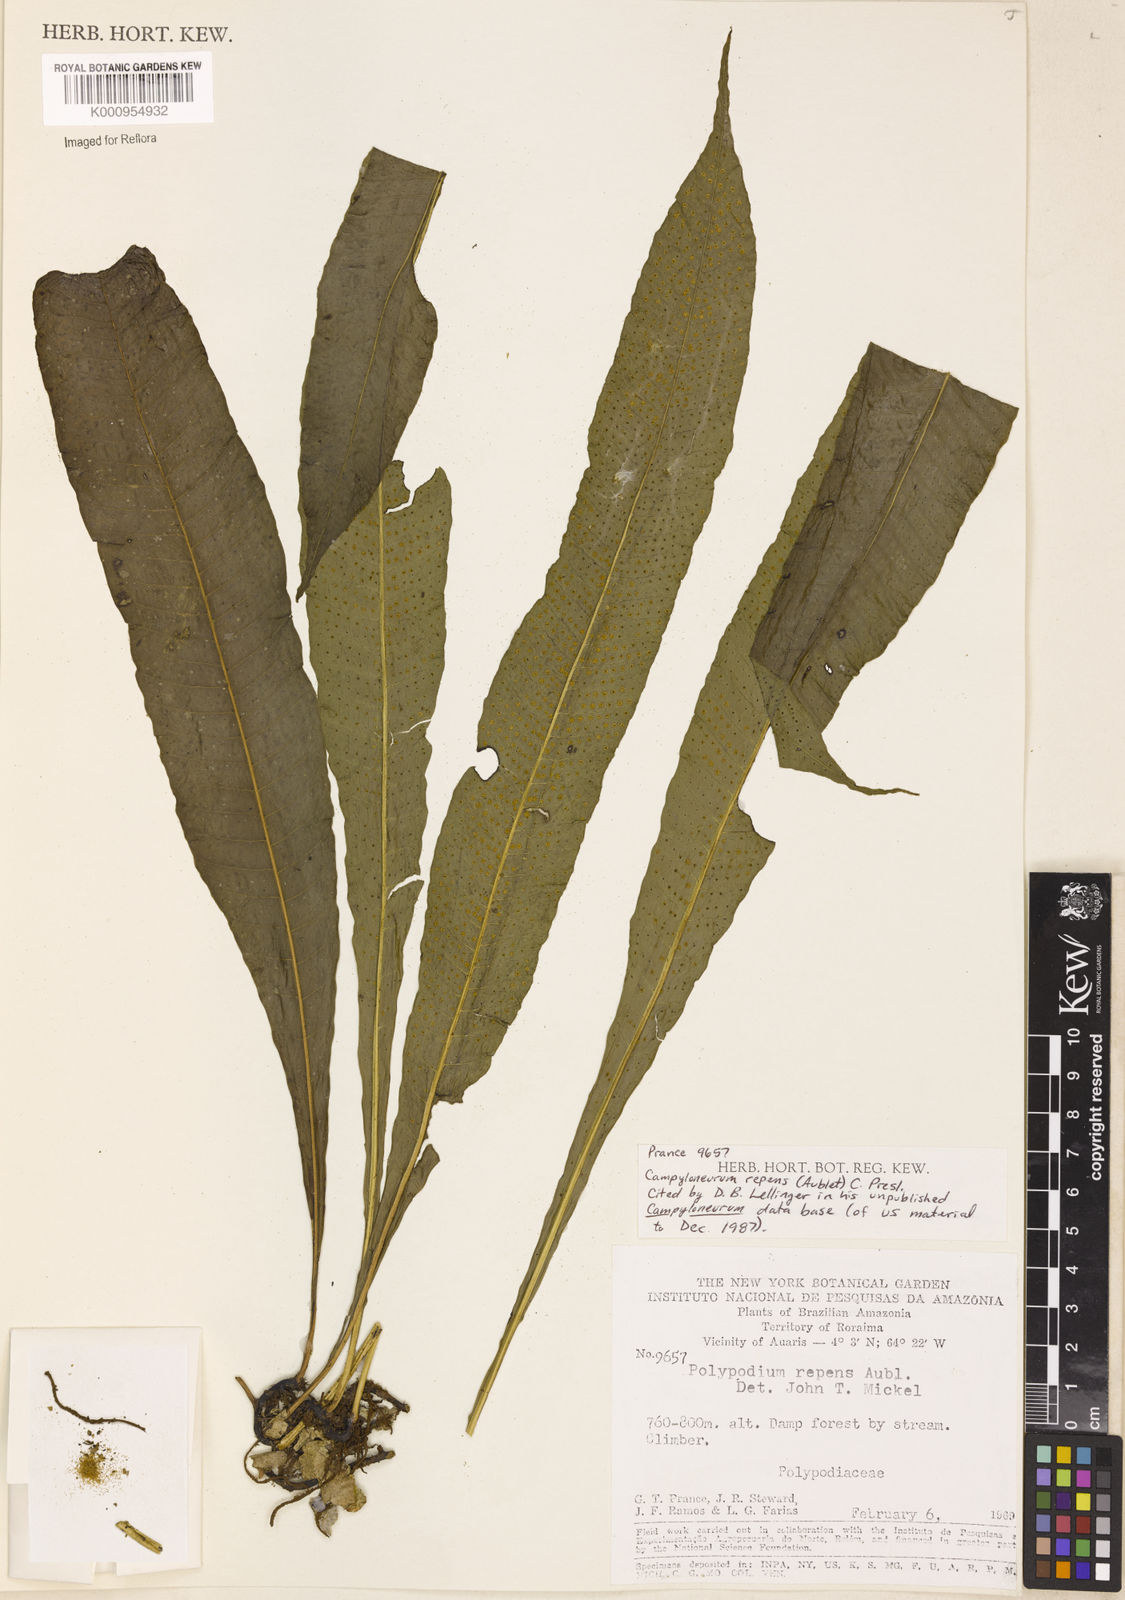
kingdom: Plantae
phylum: Tracheophyta
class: Polypodiopsida
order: Polypodiales
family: Polypodiaceae
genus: Campyloneurum
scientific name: Campyloneurum repens
